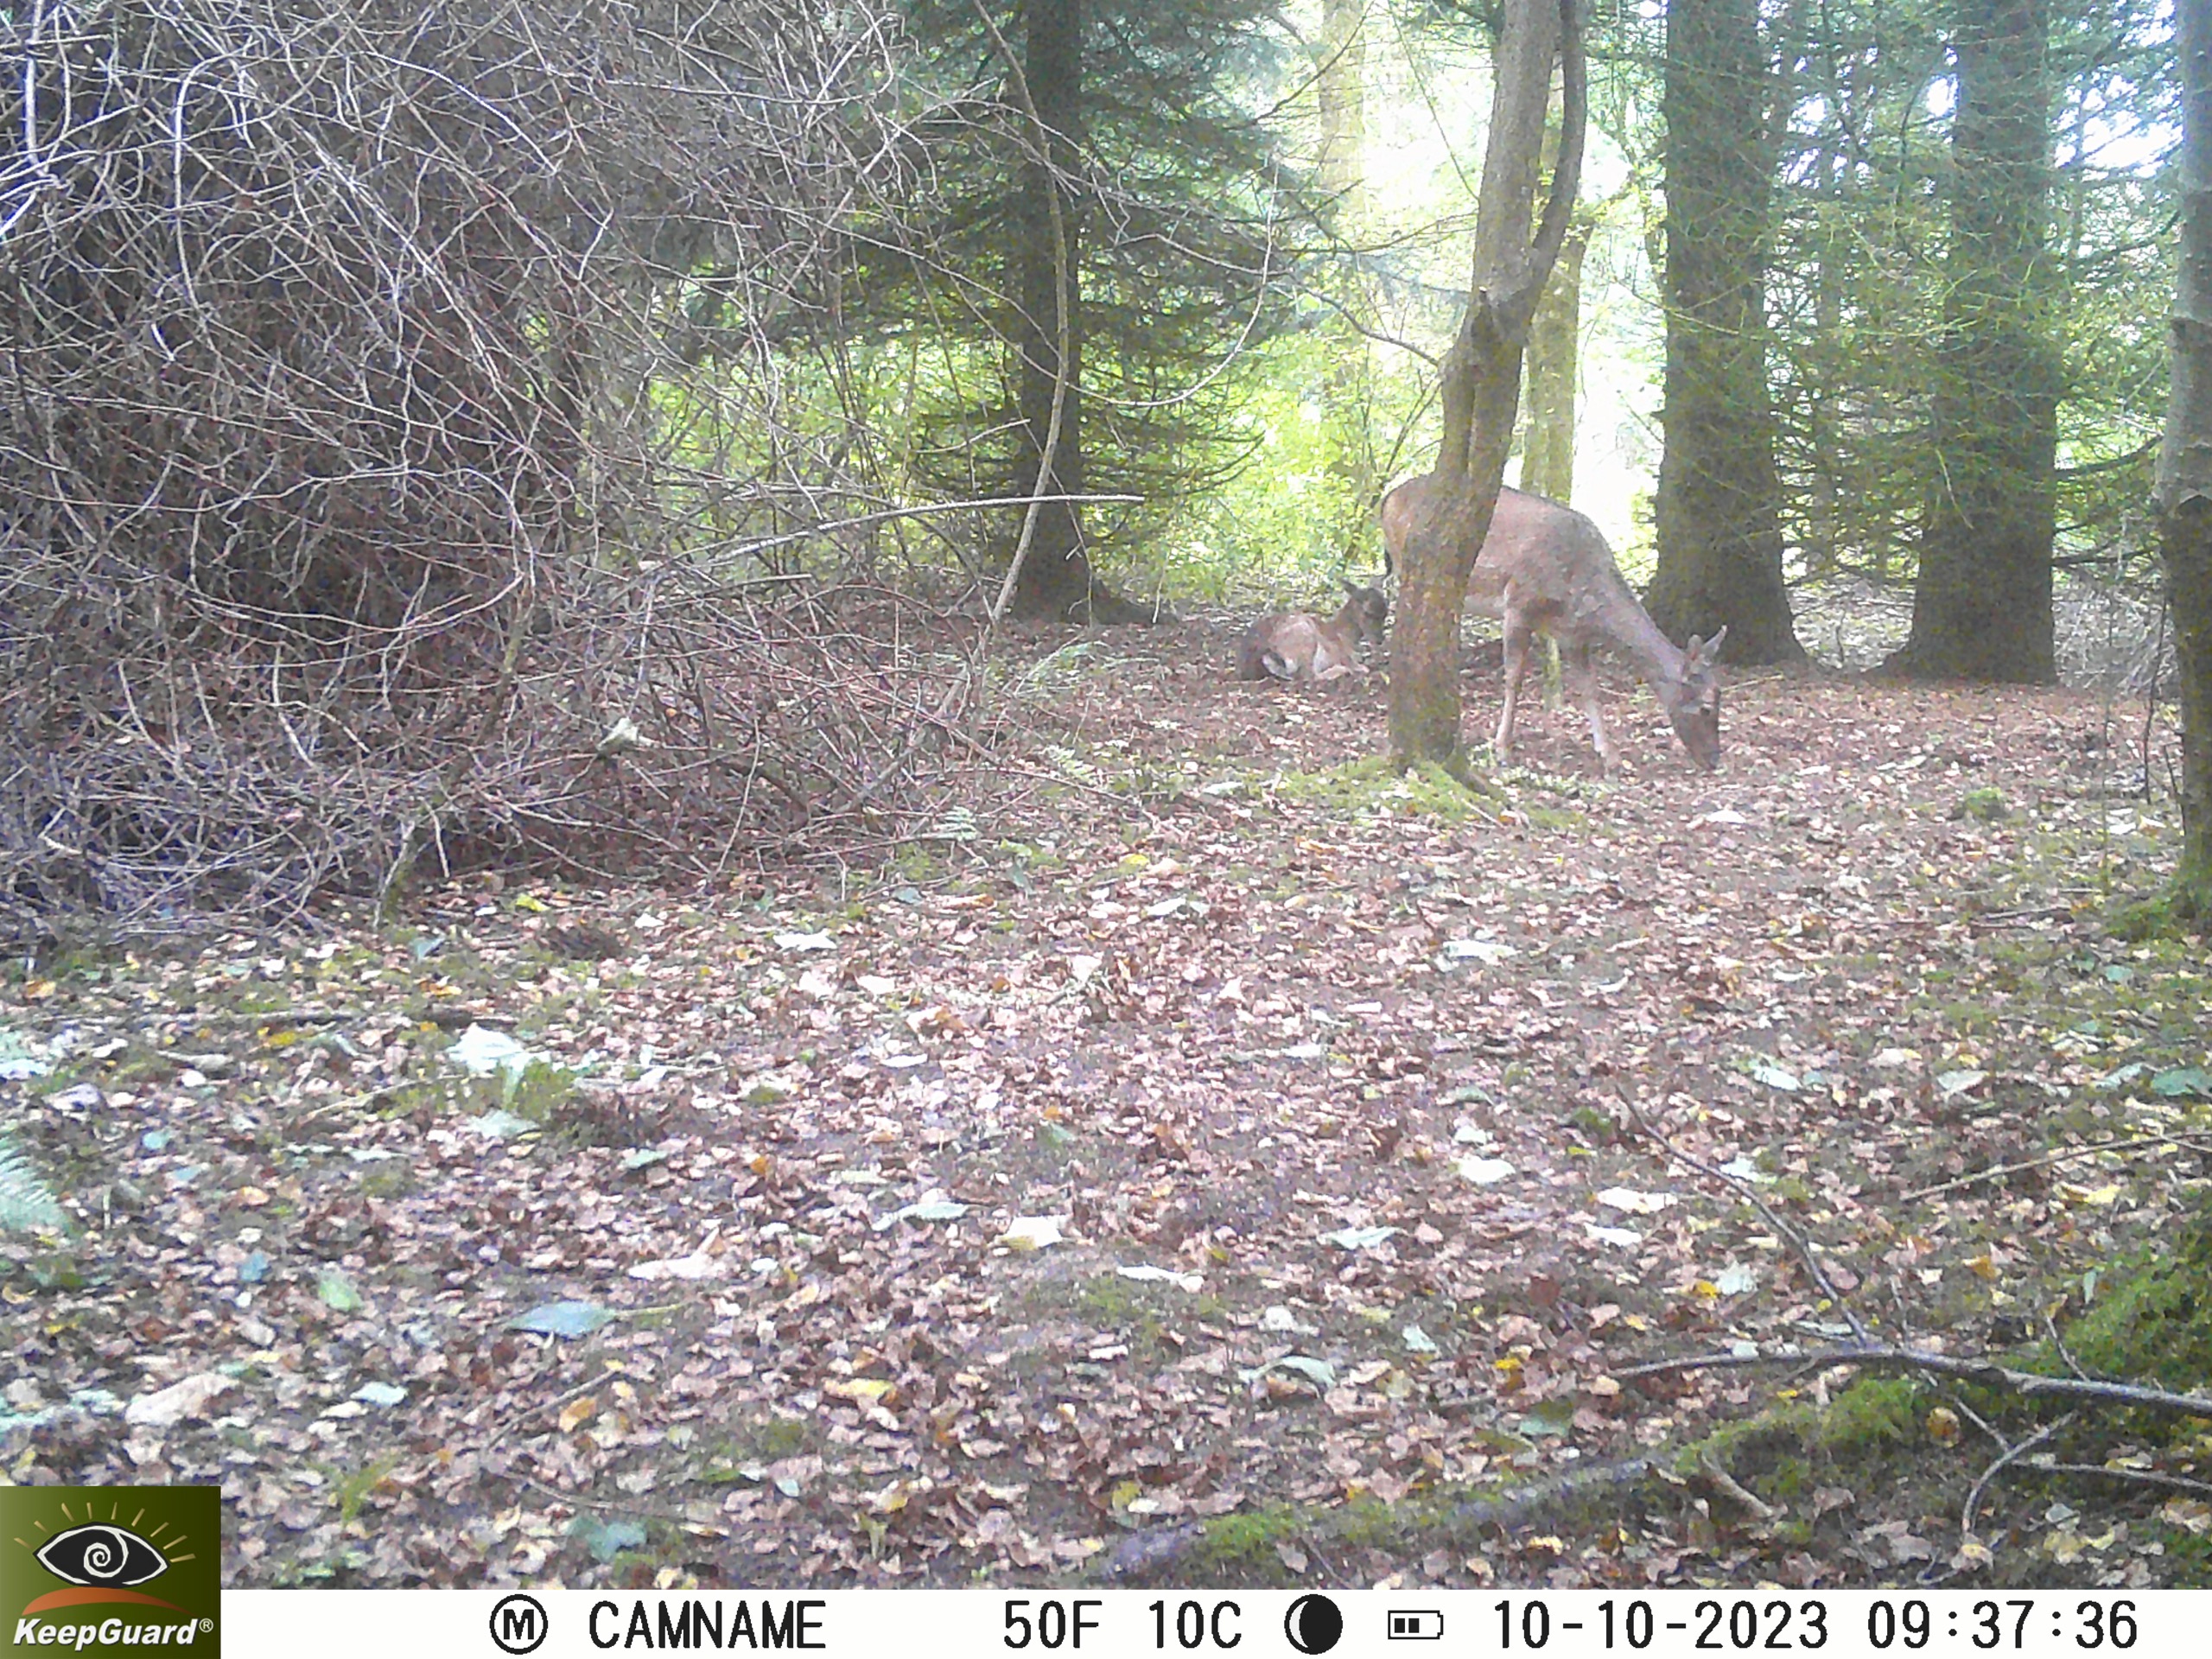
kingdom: Animalia
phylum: Chordata
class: Mammalia
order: Artiodactyla
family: Cervidae
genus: Dama
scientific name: Dama dama
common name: Dådyr
